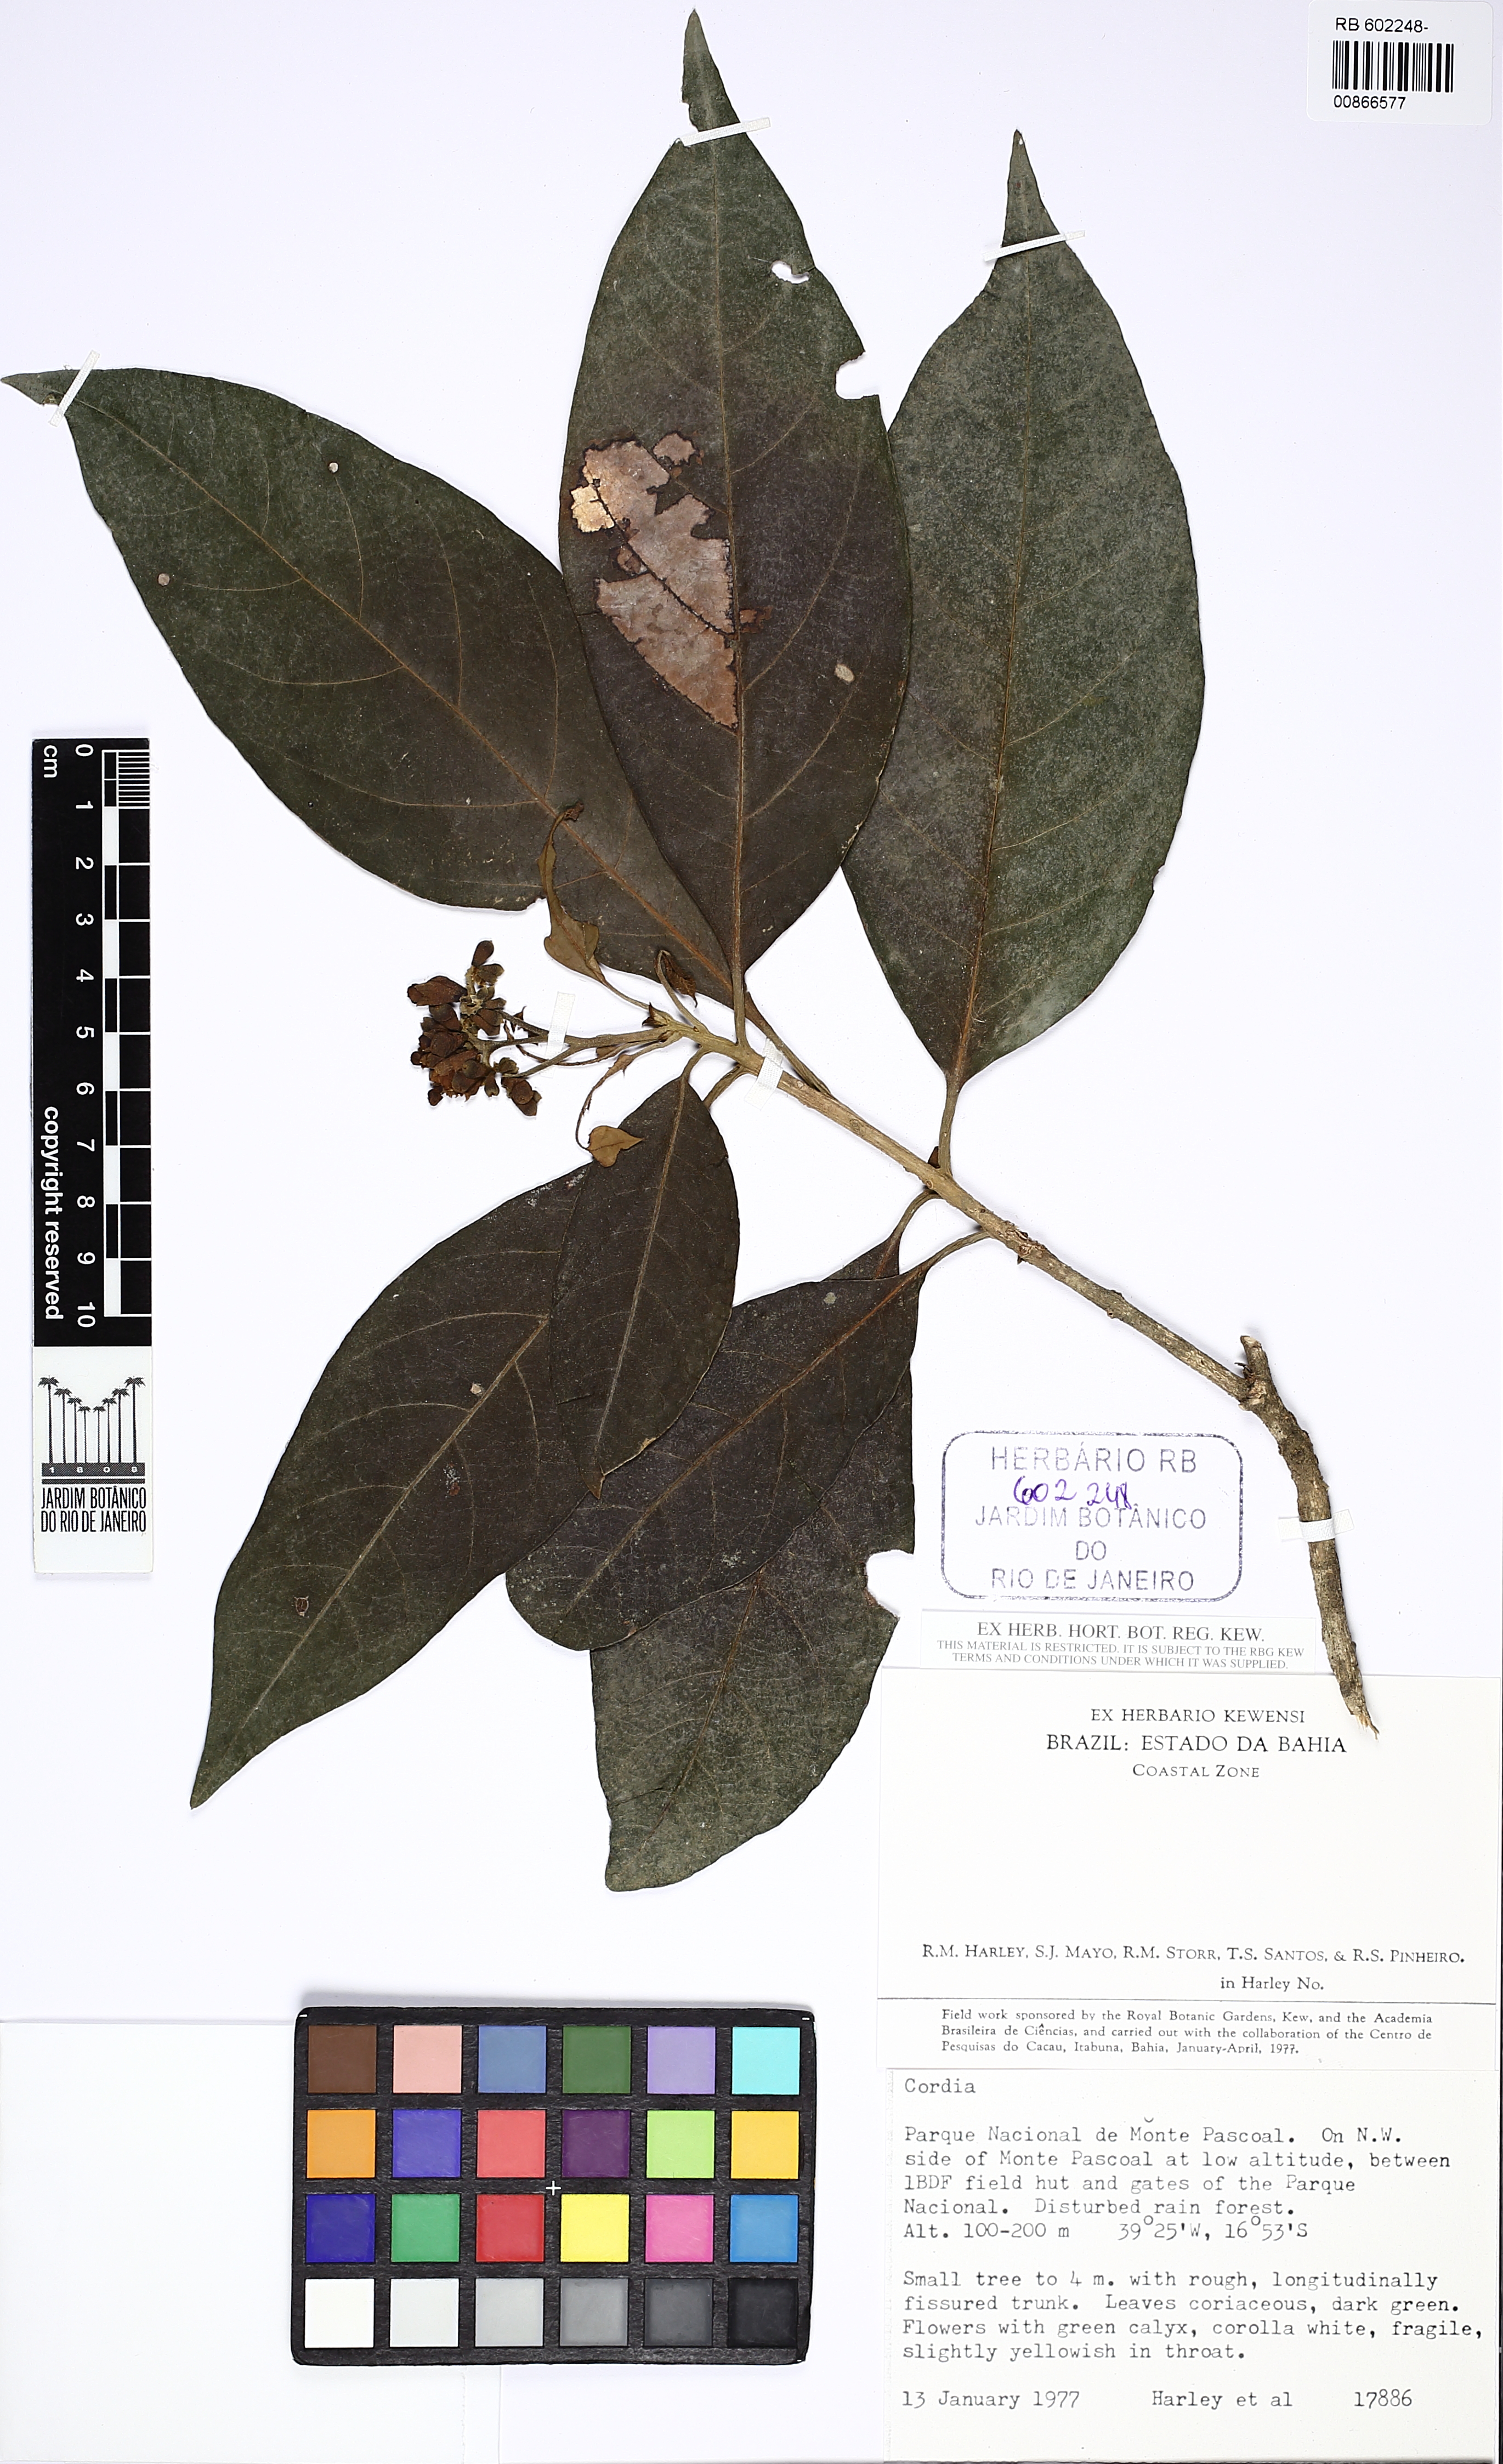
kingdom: Plantae
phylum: Tracheophyta
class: Magnoliopsida
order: Boraginales
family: Cordiaceae
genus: Cordia
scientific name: Cordia
